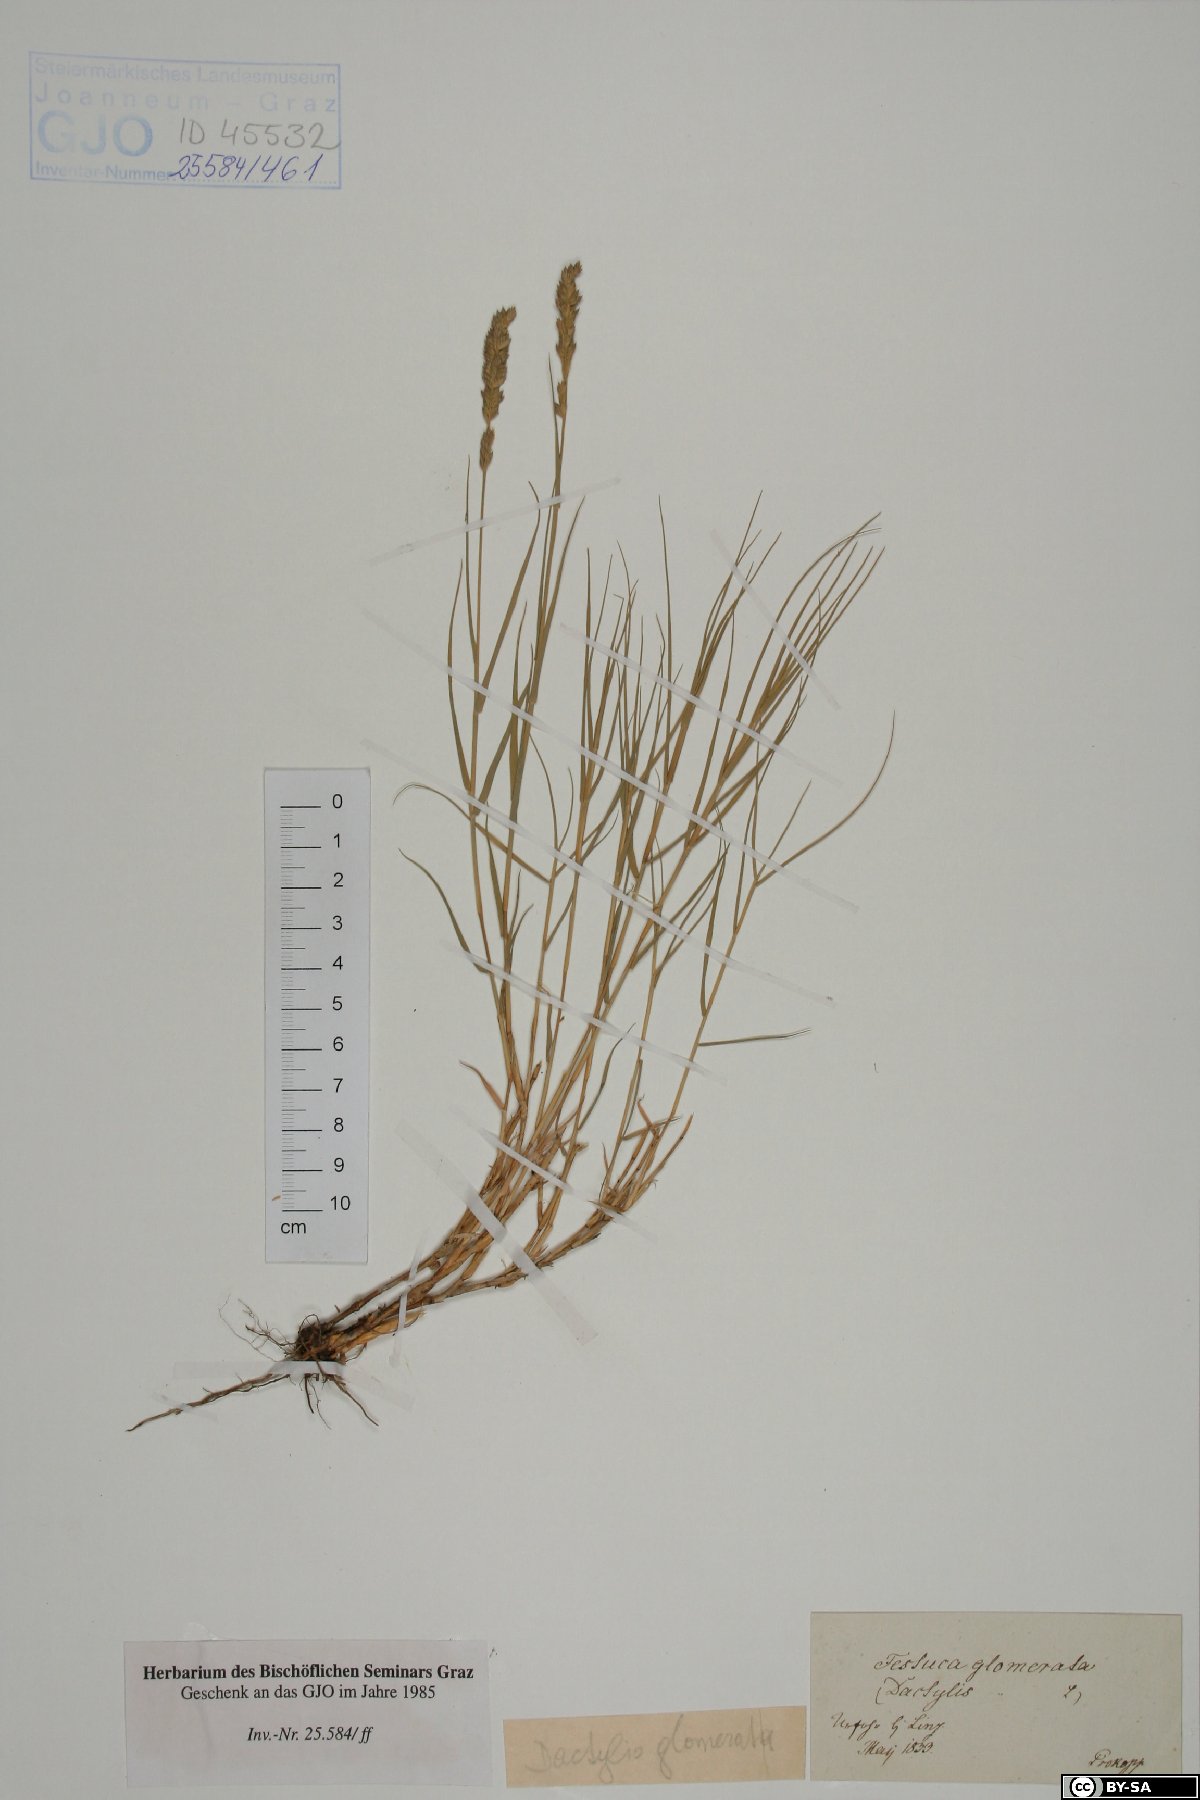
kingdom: Plantae
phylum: Tracheophyta
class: Liliopsida
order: Poales
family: Poaceae
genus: Festuca
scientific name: Festuca glomerata
